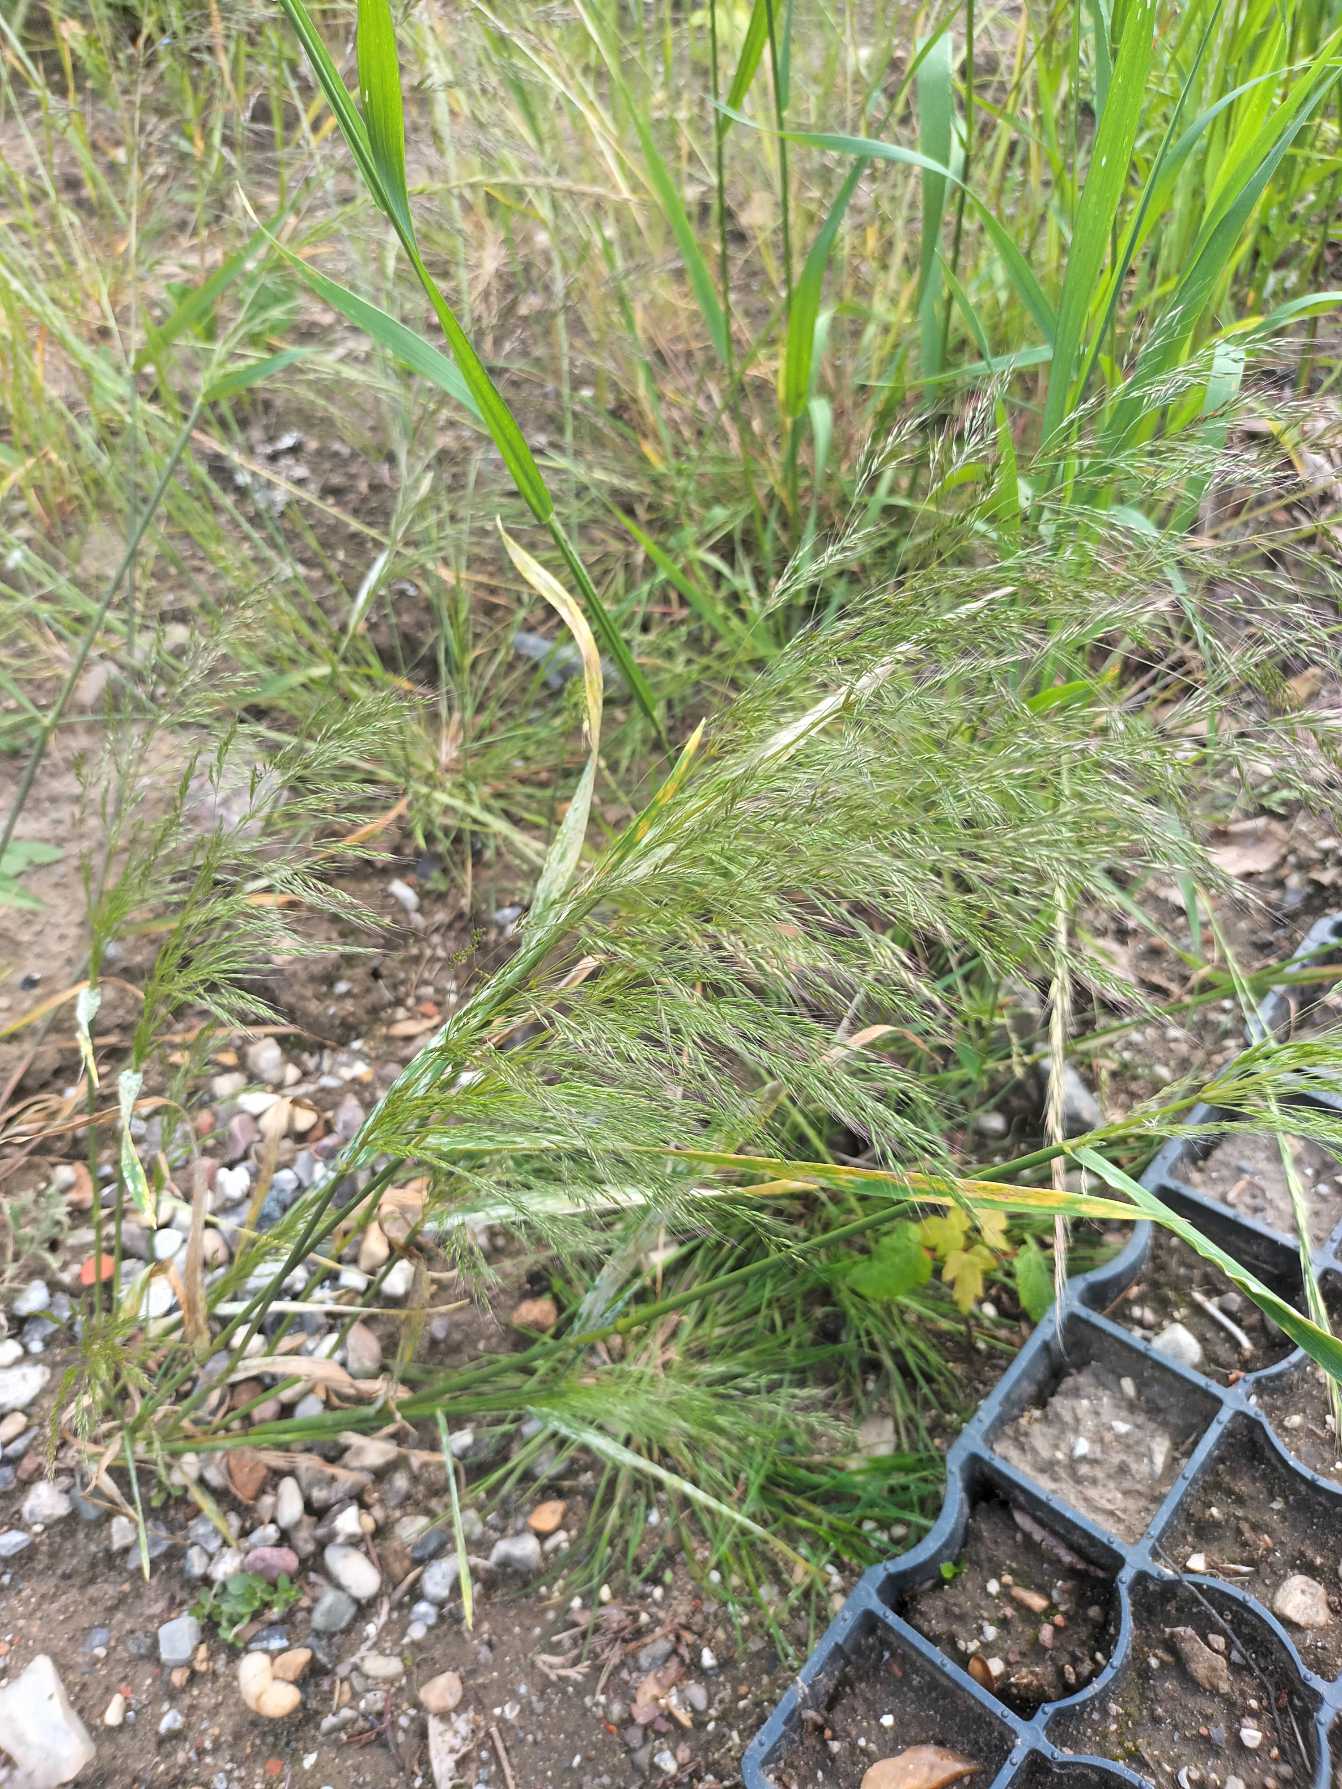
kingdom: Plantae
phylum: Tracheophyta
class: Liliopsida
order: Poales
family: Poaceae
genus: Apera
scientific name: Apera spica-venti
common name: Vindaks
